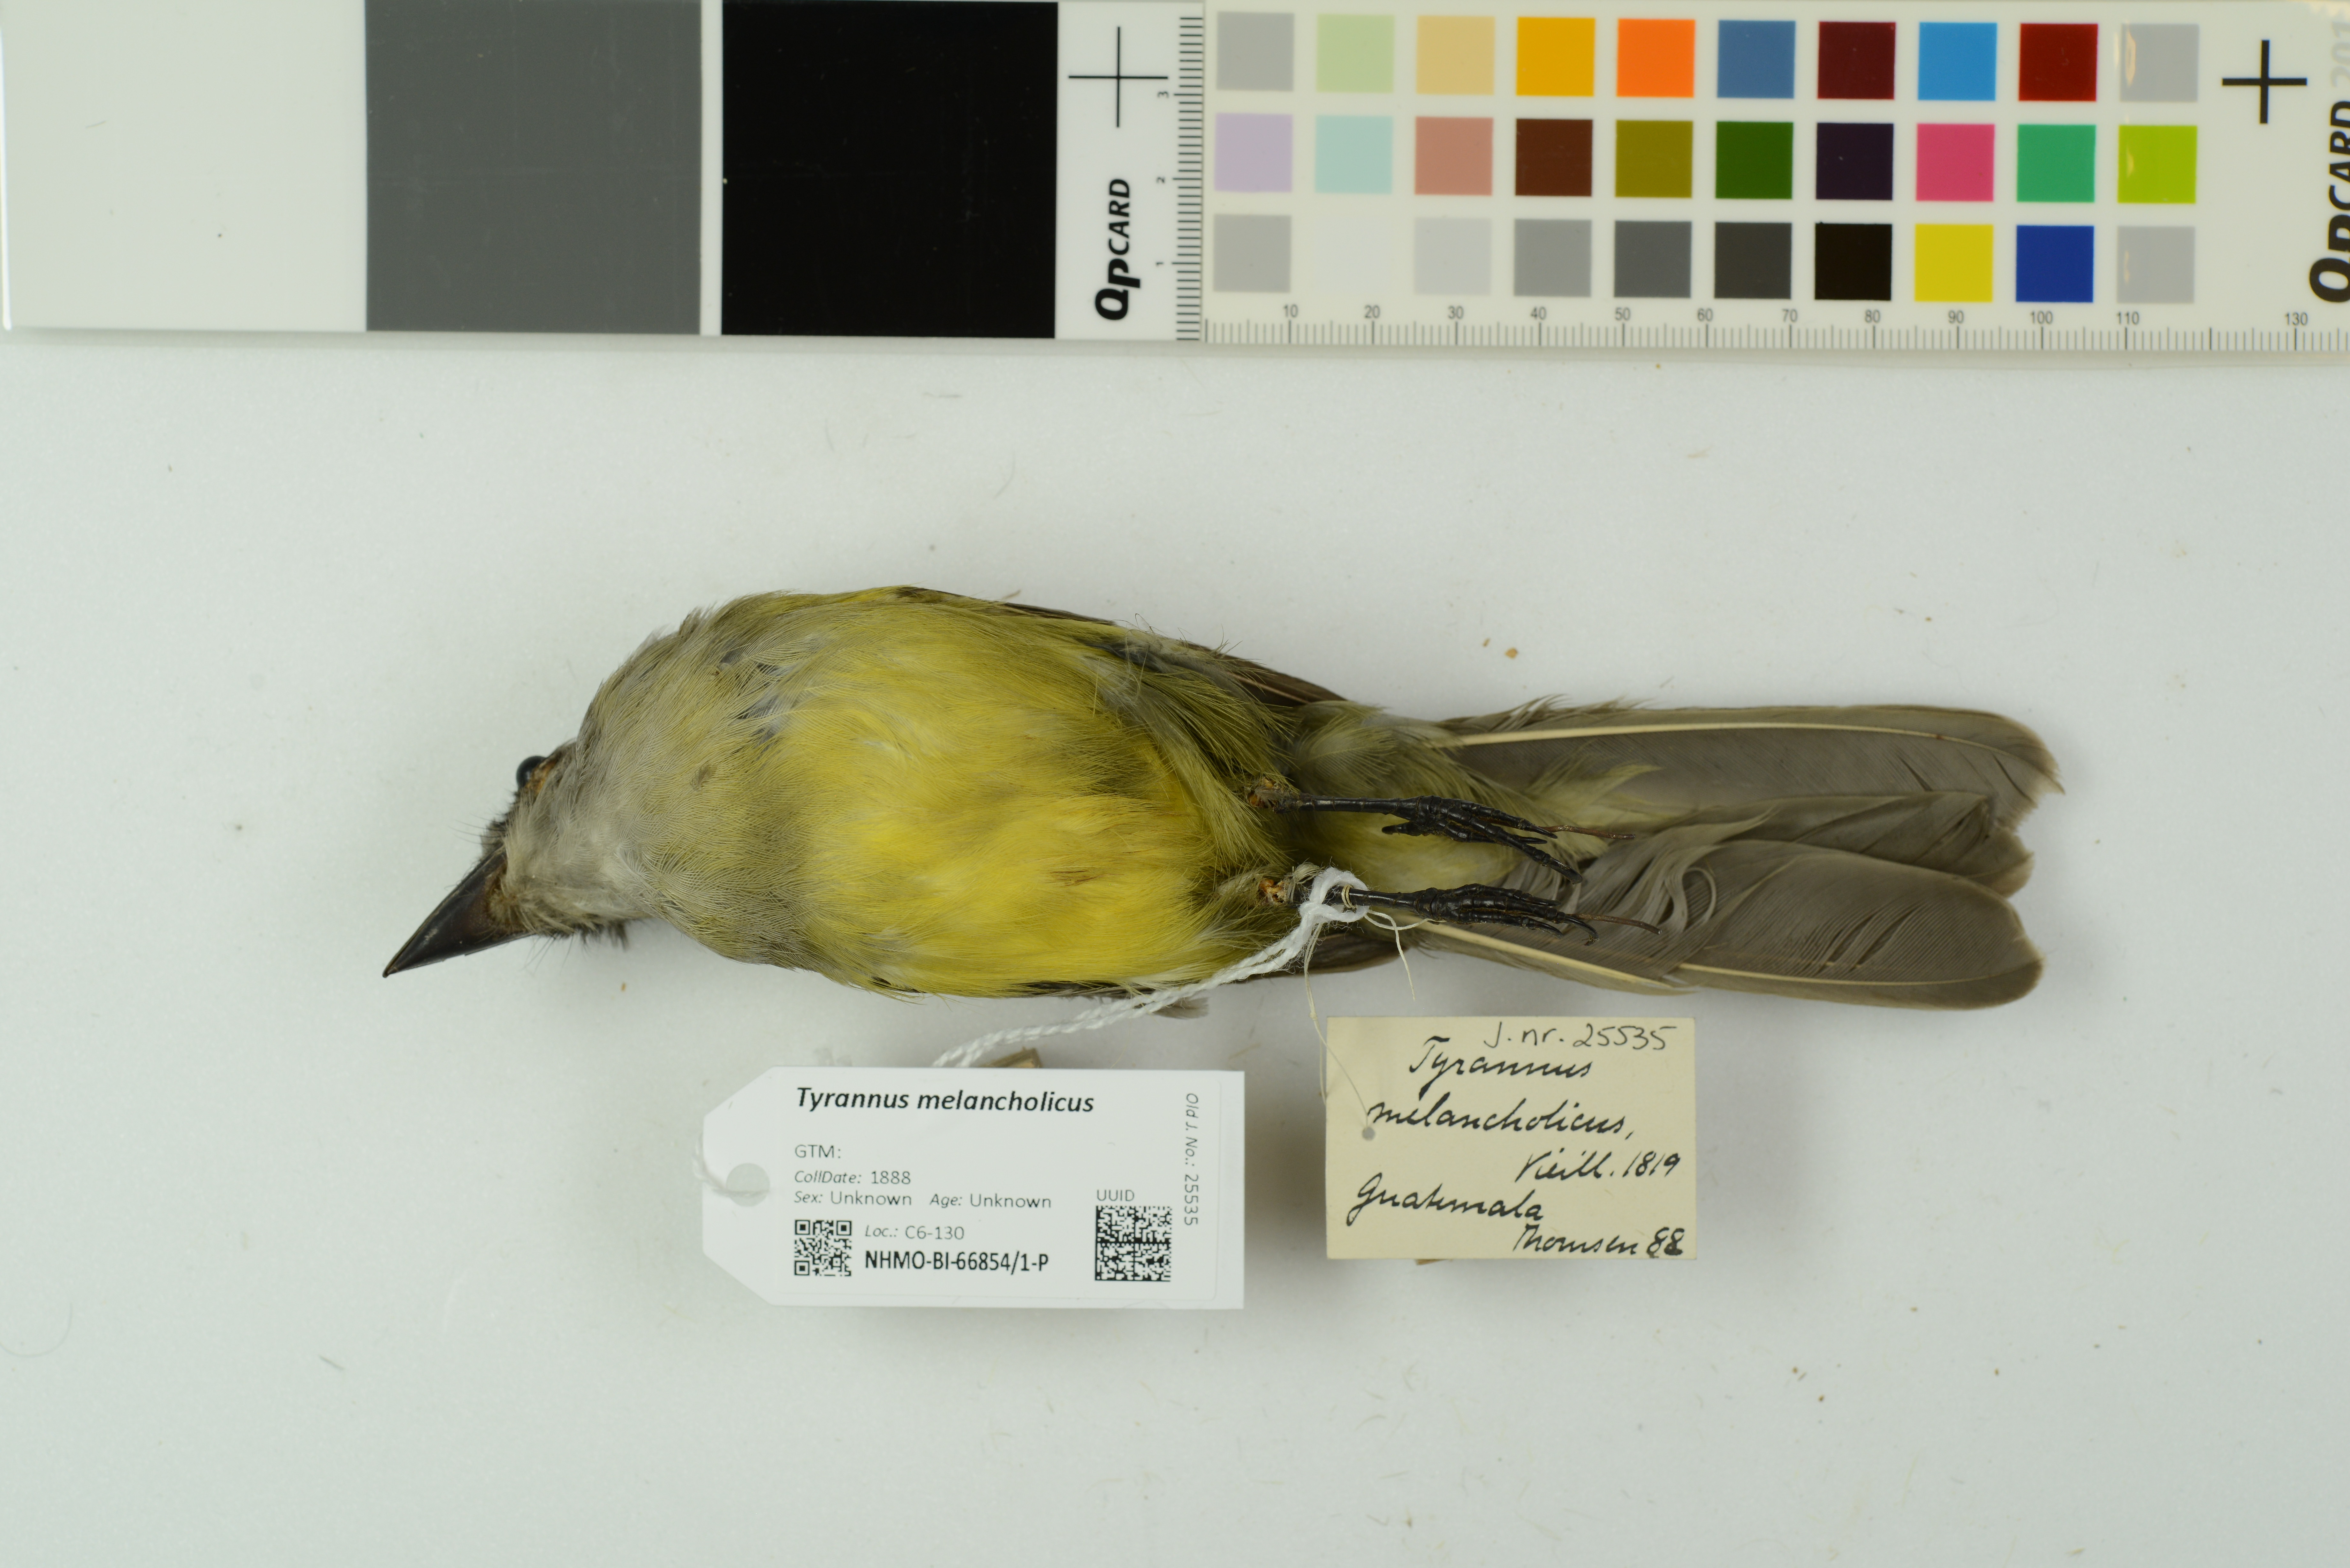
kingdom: Animalia
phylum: Chordata
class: Aves
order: Passeriformes
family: Tyrannidae
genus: Tyrannus
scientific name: Tyrannus melancholicus
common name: Tropical kingbird
